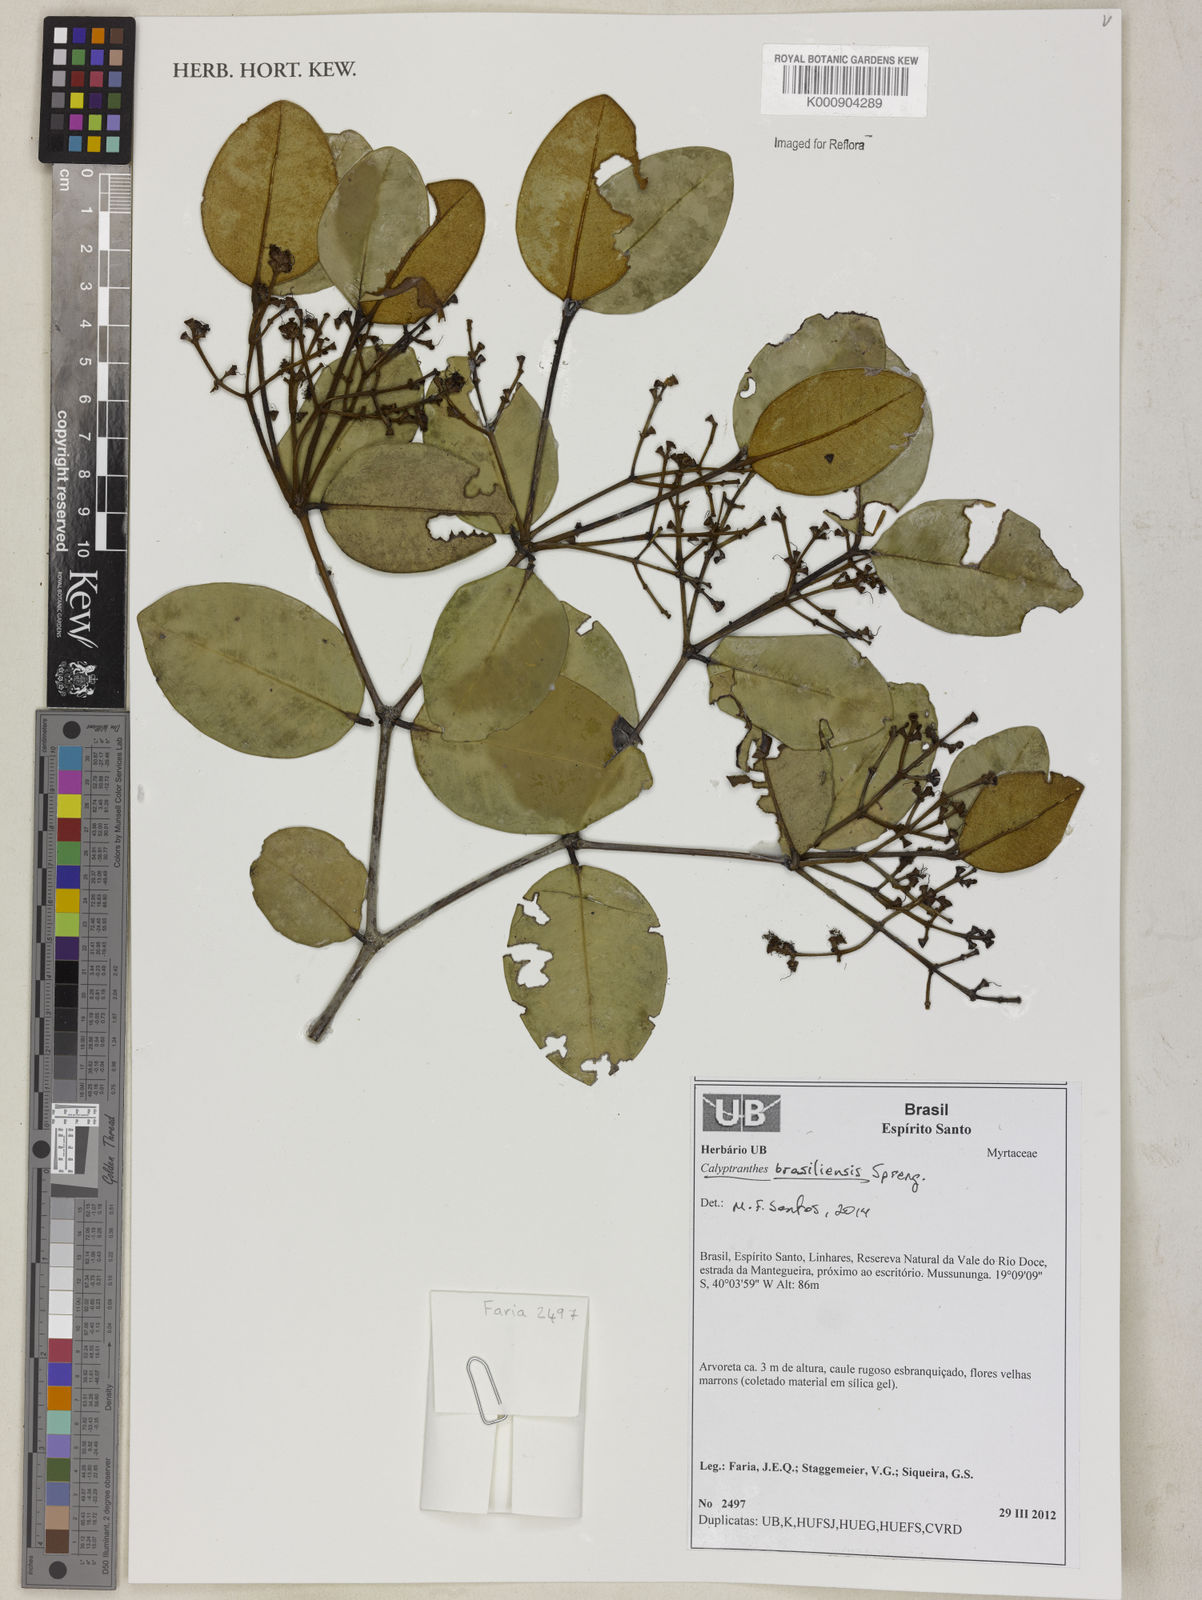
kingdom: Plantae
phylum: Tracheophyta
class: Magnoliopsida
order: Myrtales
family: Myrtaceae
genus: Myrcia
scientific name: Myrcia neobrasiliensis
